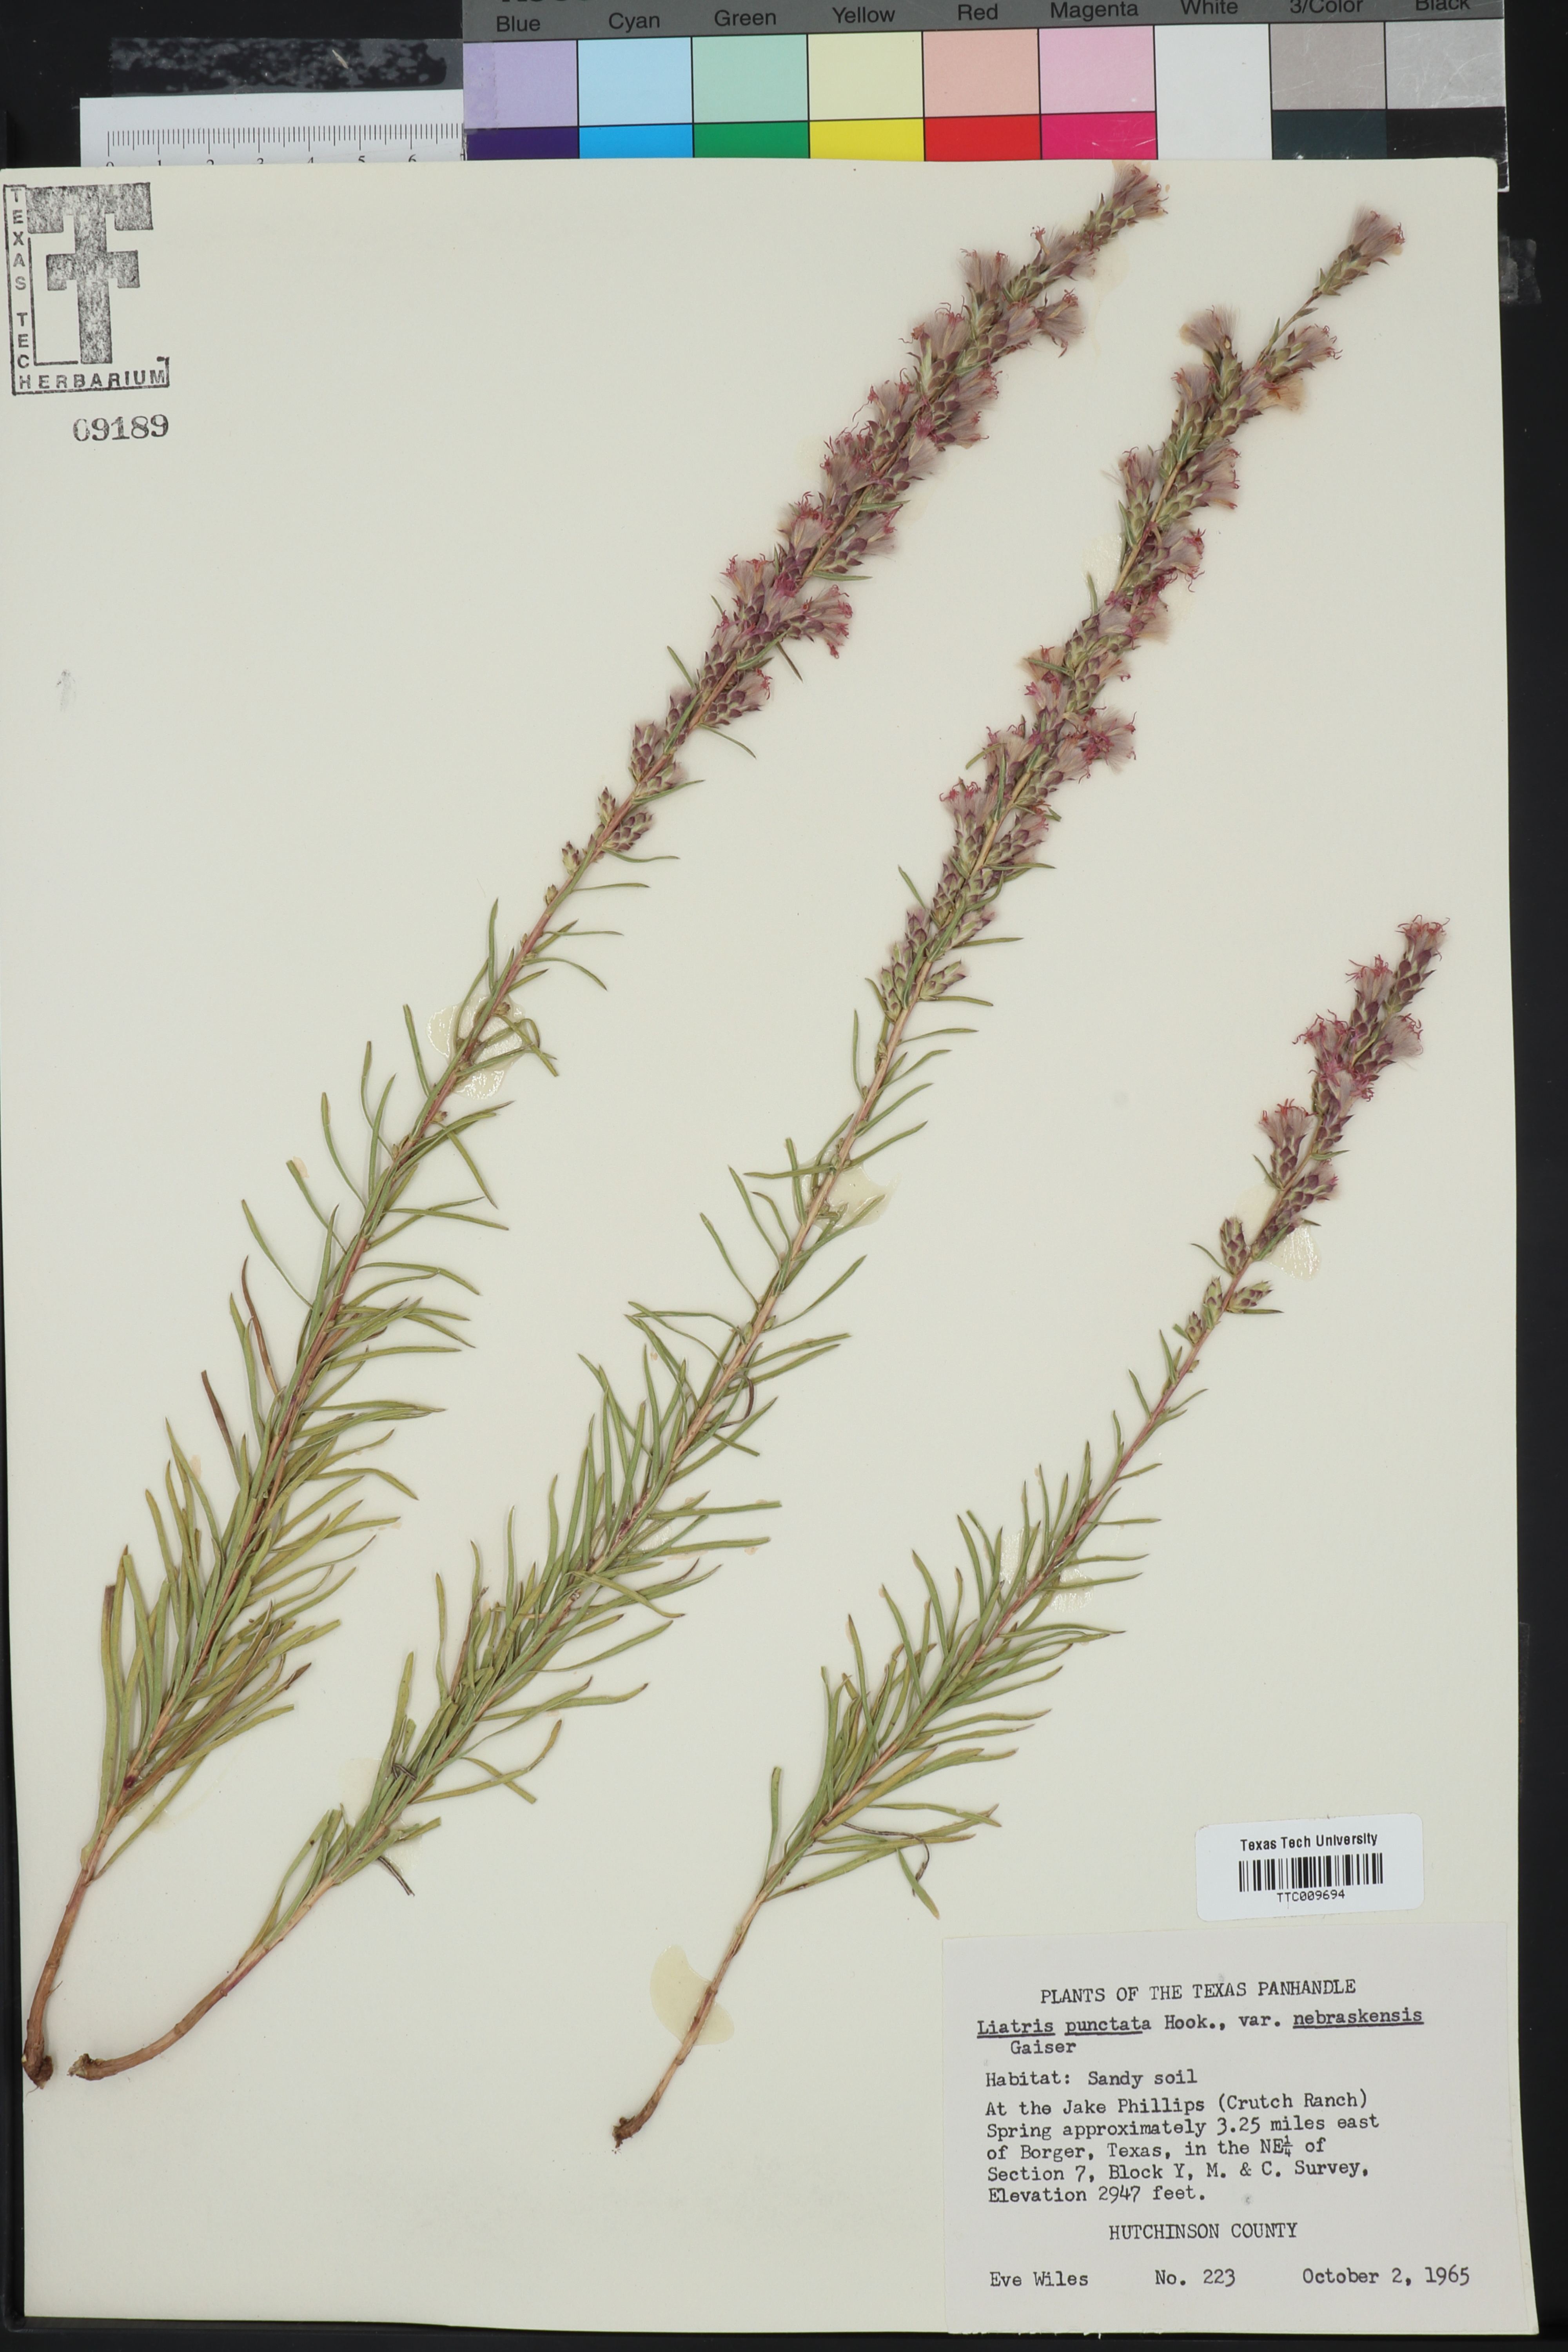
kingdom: Plantae
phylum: Tracheophyta
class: Magnoliopsida
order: Asterales
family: Asteraceae
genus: Liatris
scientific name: Liatris punctata
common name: Dotted gayfeather
